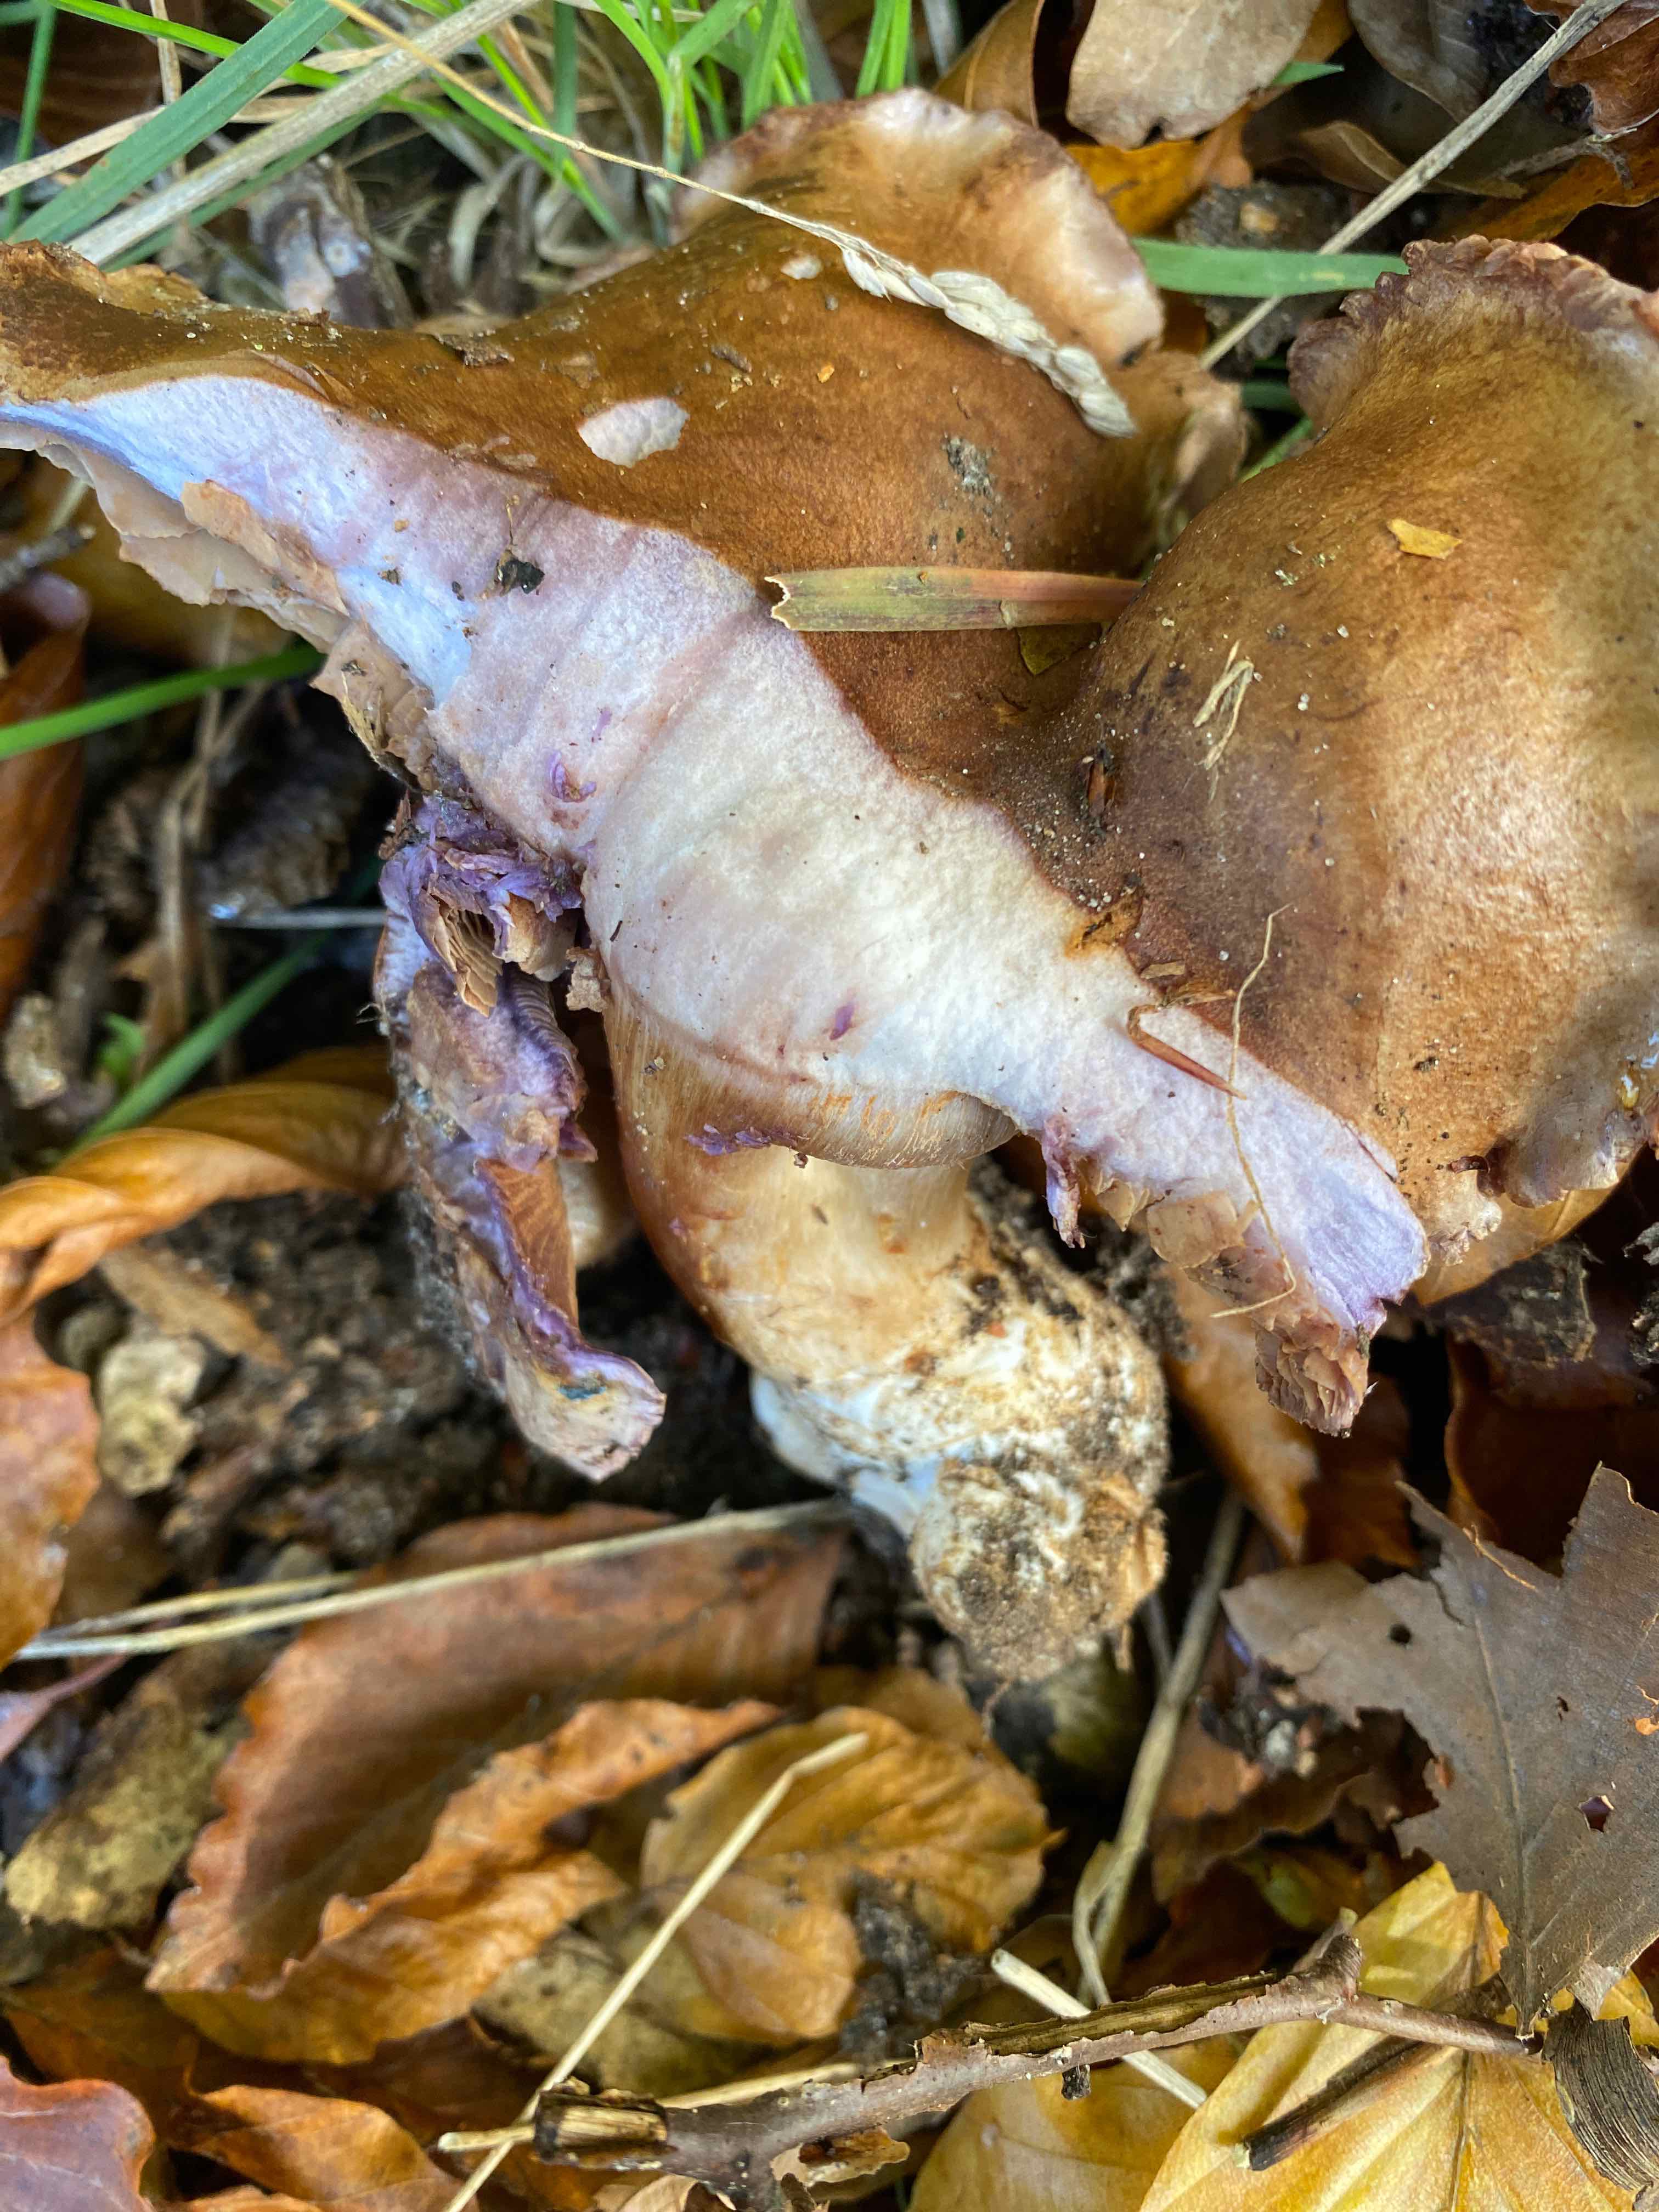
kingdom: Fungi
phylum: Basidiomycota
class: Agaricomycetes
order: Agaricales
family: Cortinariaceae
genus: Cortinarius
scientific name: Cortinarius largus
